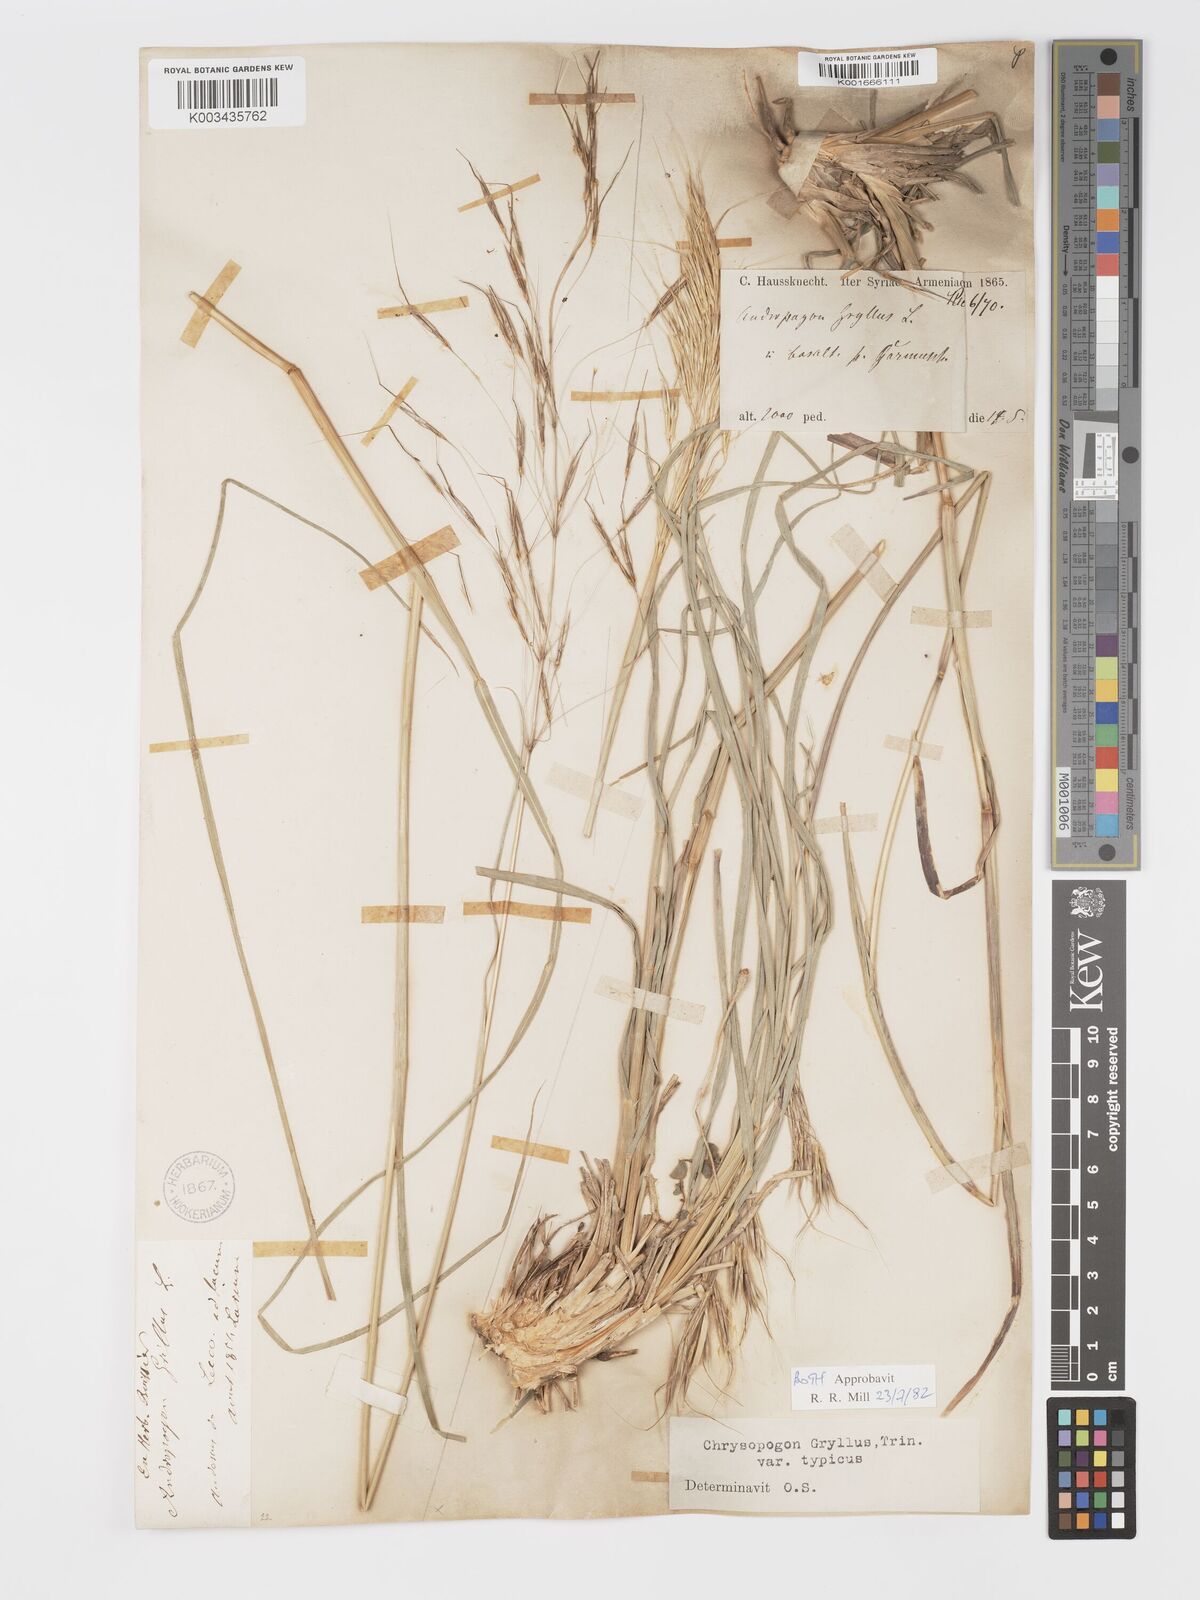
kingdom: Plantae
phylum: Tracheophyta
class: Liliopsida
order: Poales
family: Poaceae
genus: Chrysopogon
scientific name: Chrysopogon gryllus
